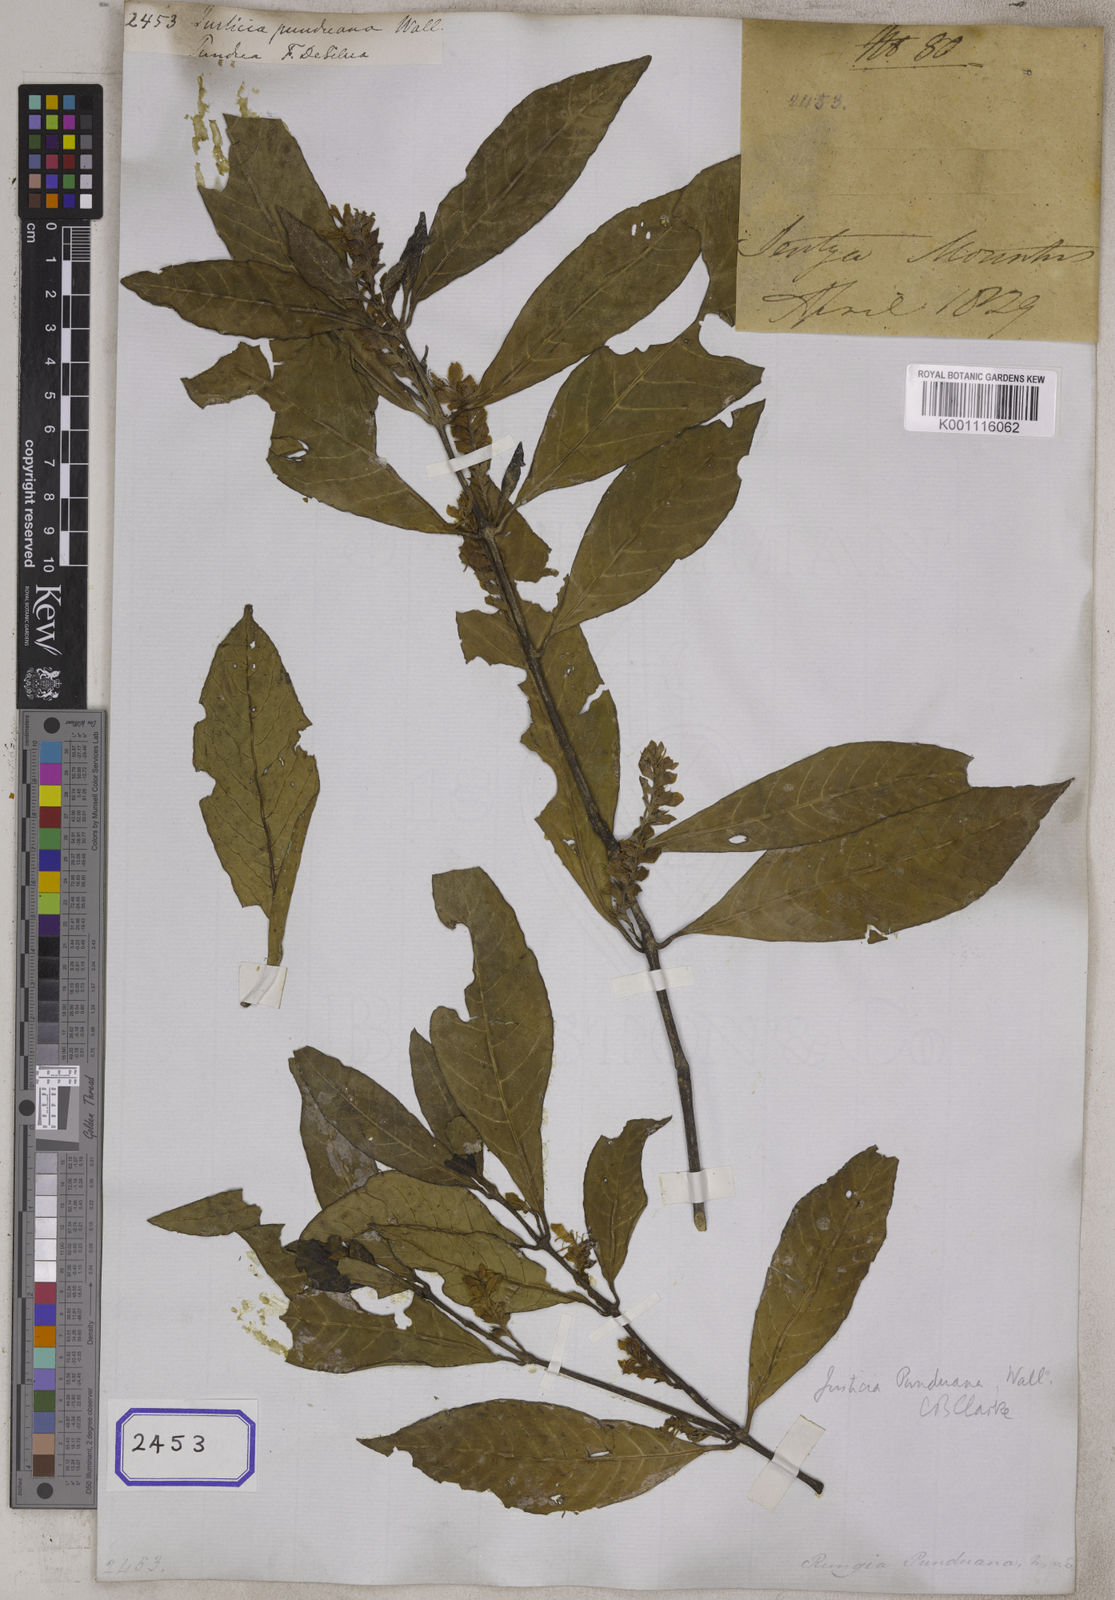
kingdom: Plantae
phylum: Tracheophyta
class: Magnoliopsida
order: Lamiales
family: Acanthaceae
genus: Justicia
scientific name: Justicia
